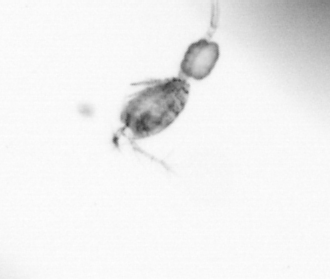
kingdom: Animalia
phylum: Arthropoda
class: Copepoda
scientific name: Copepoda
